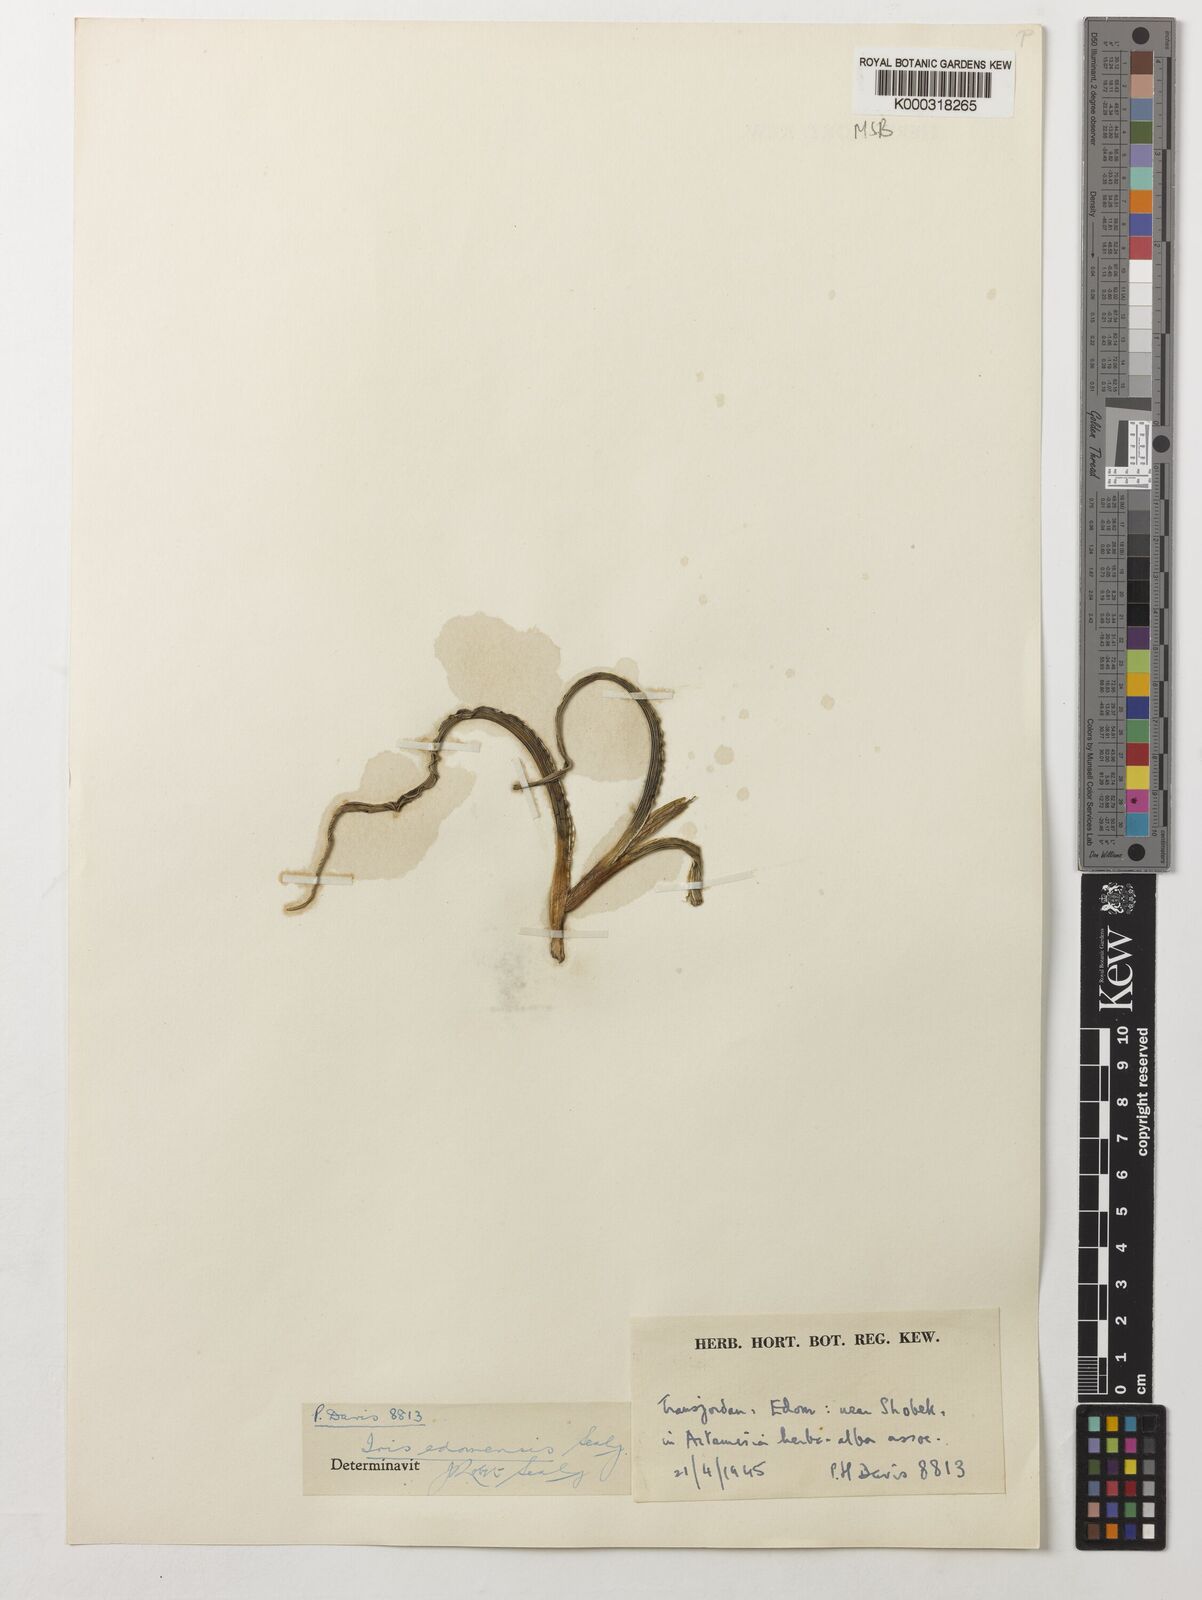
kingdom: Plantae
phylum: Tracheophyta
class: Liliopsida
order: Asparagales
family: Iridaceae
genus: Iris
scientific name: Iris edomensis
